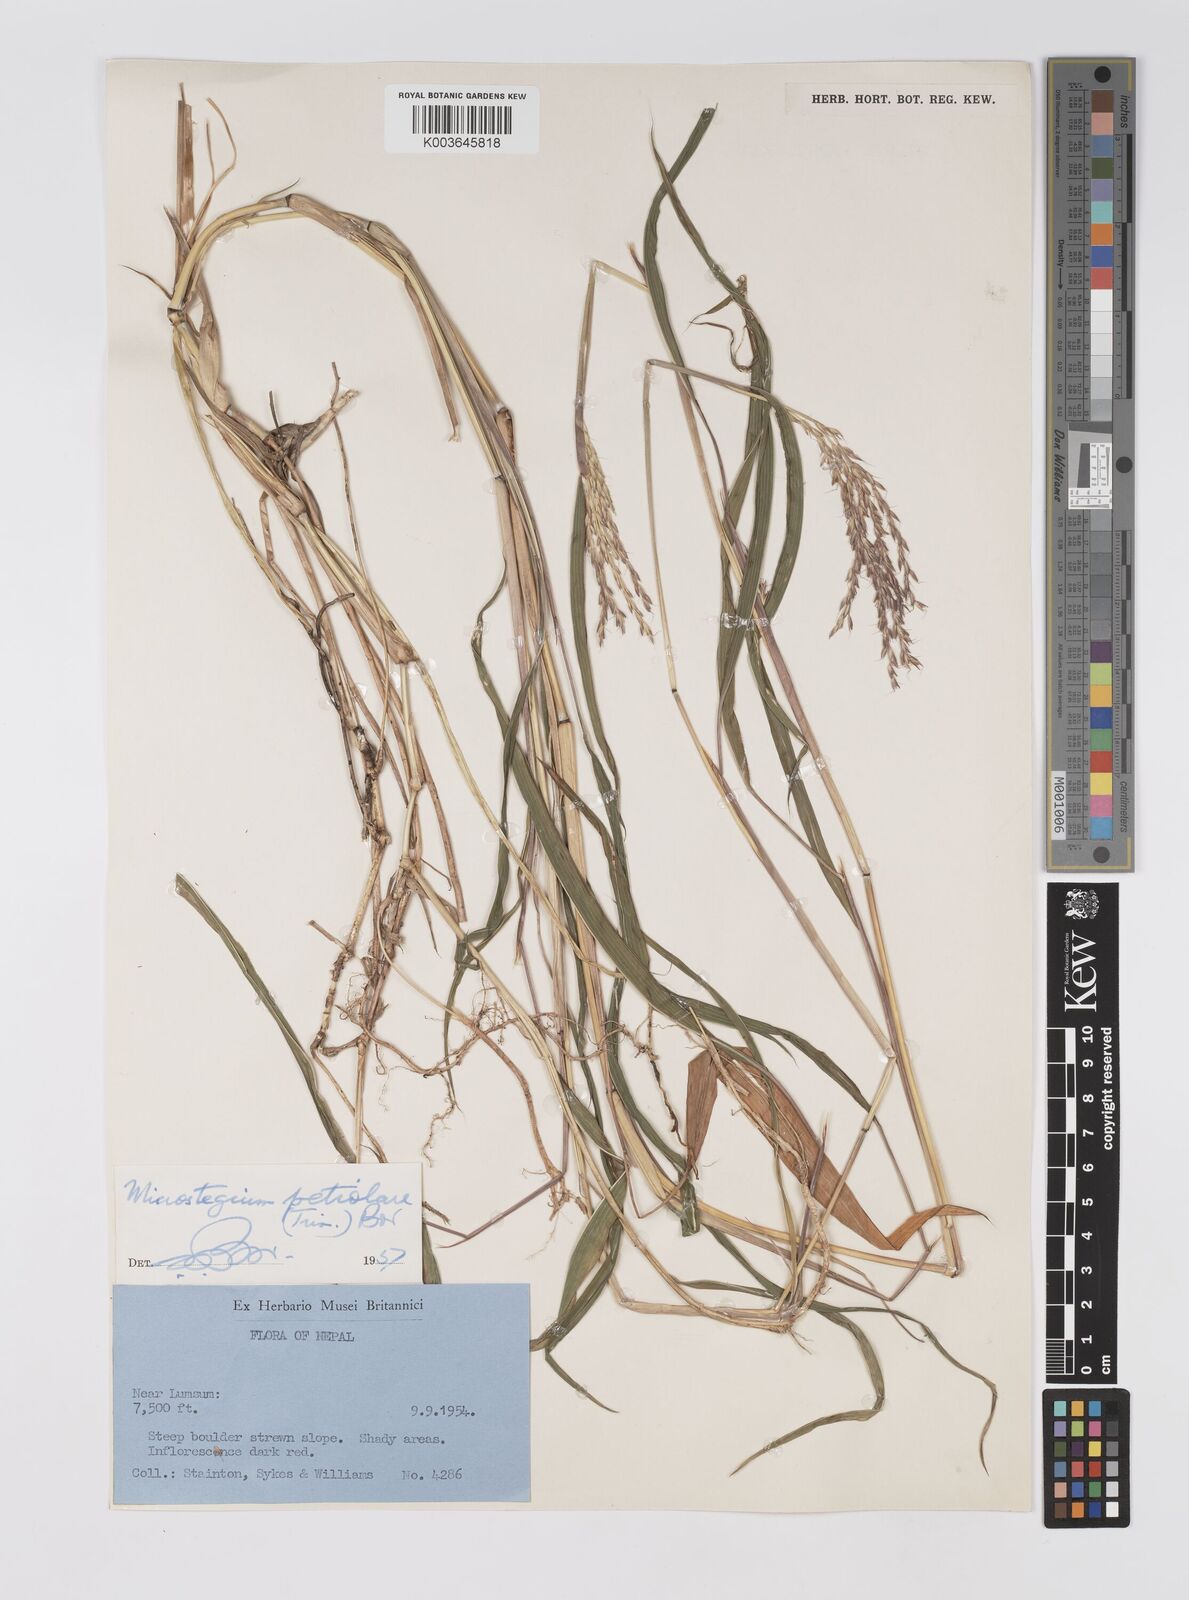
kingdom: Plantae
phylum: Tracheophyta
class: Liliopsida
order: Poales
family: Poaceae
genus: Microstegium
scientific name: Microstegium petiolare
